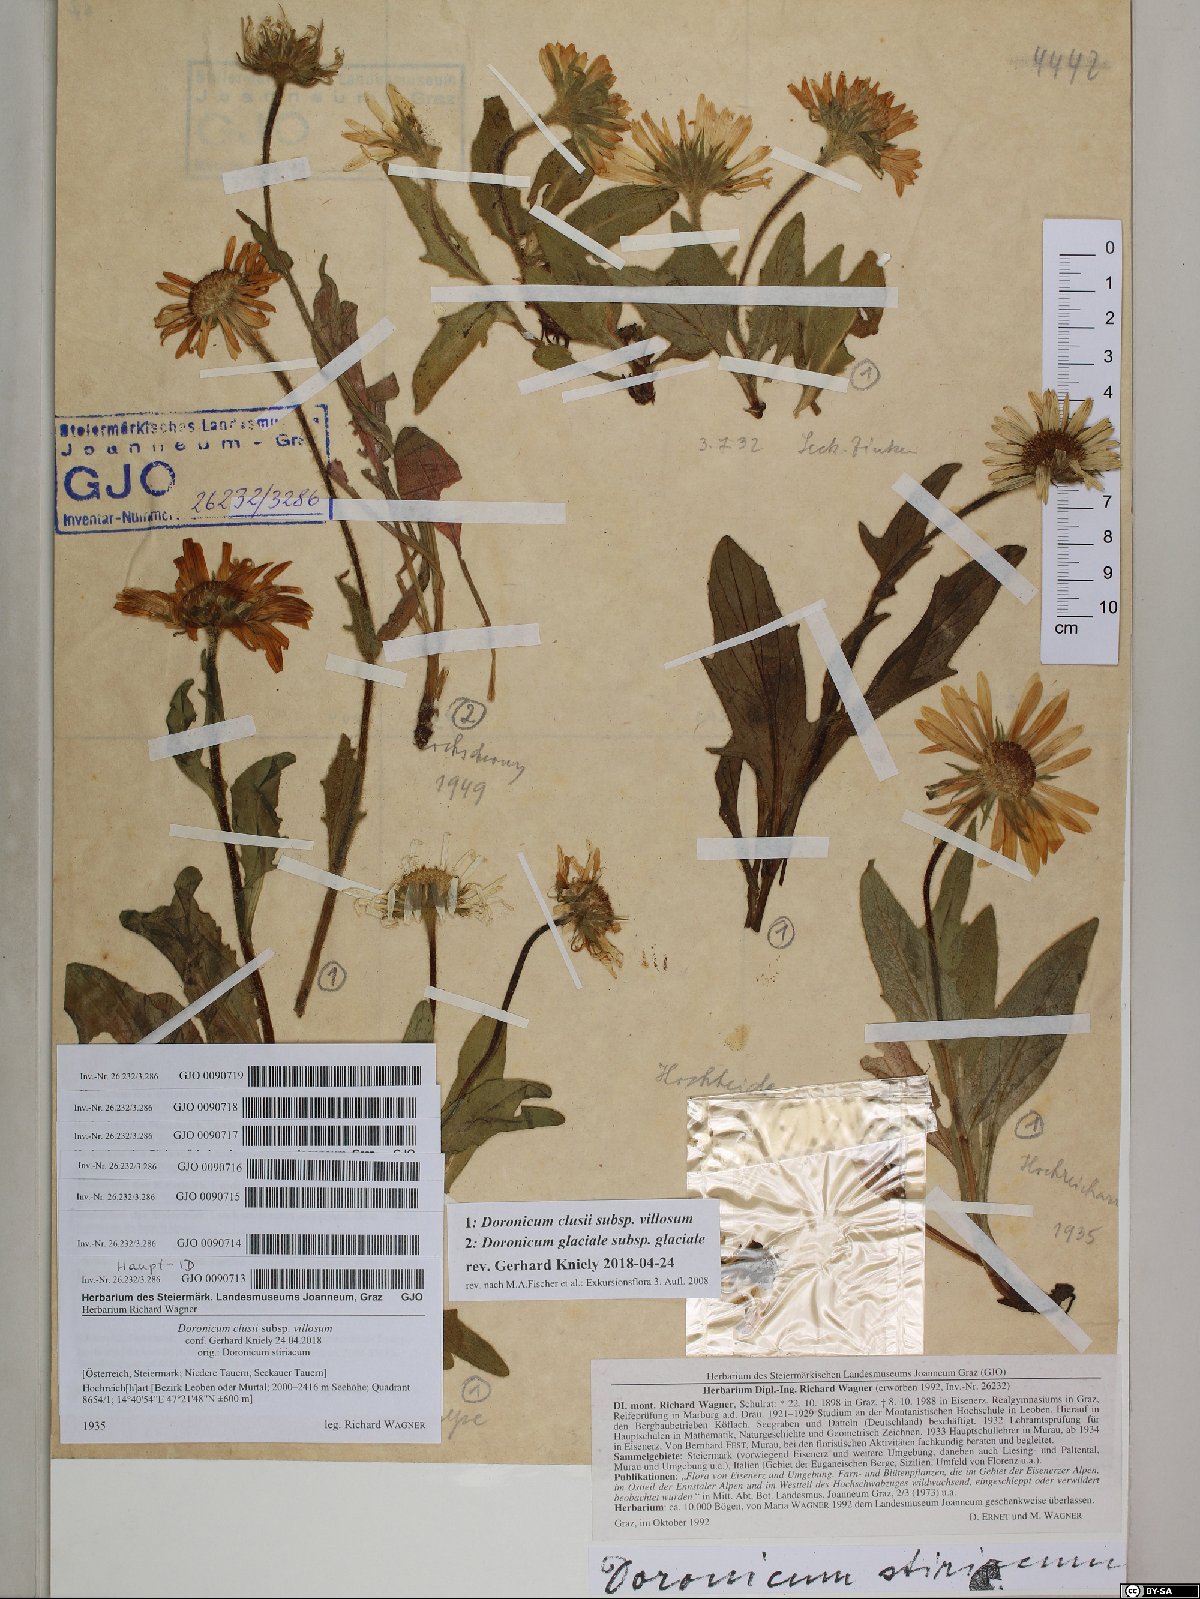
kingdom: Plantae
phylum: Tracheophyta
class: Magnoliopsida
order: Asterales
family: Asteraceae
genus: Doronicum
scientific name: Doronicum clusii
